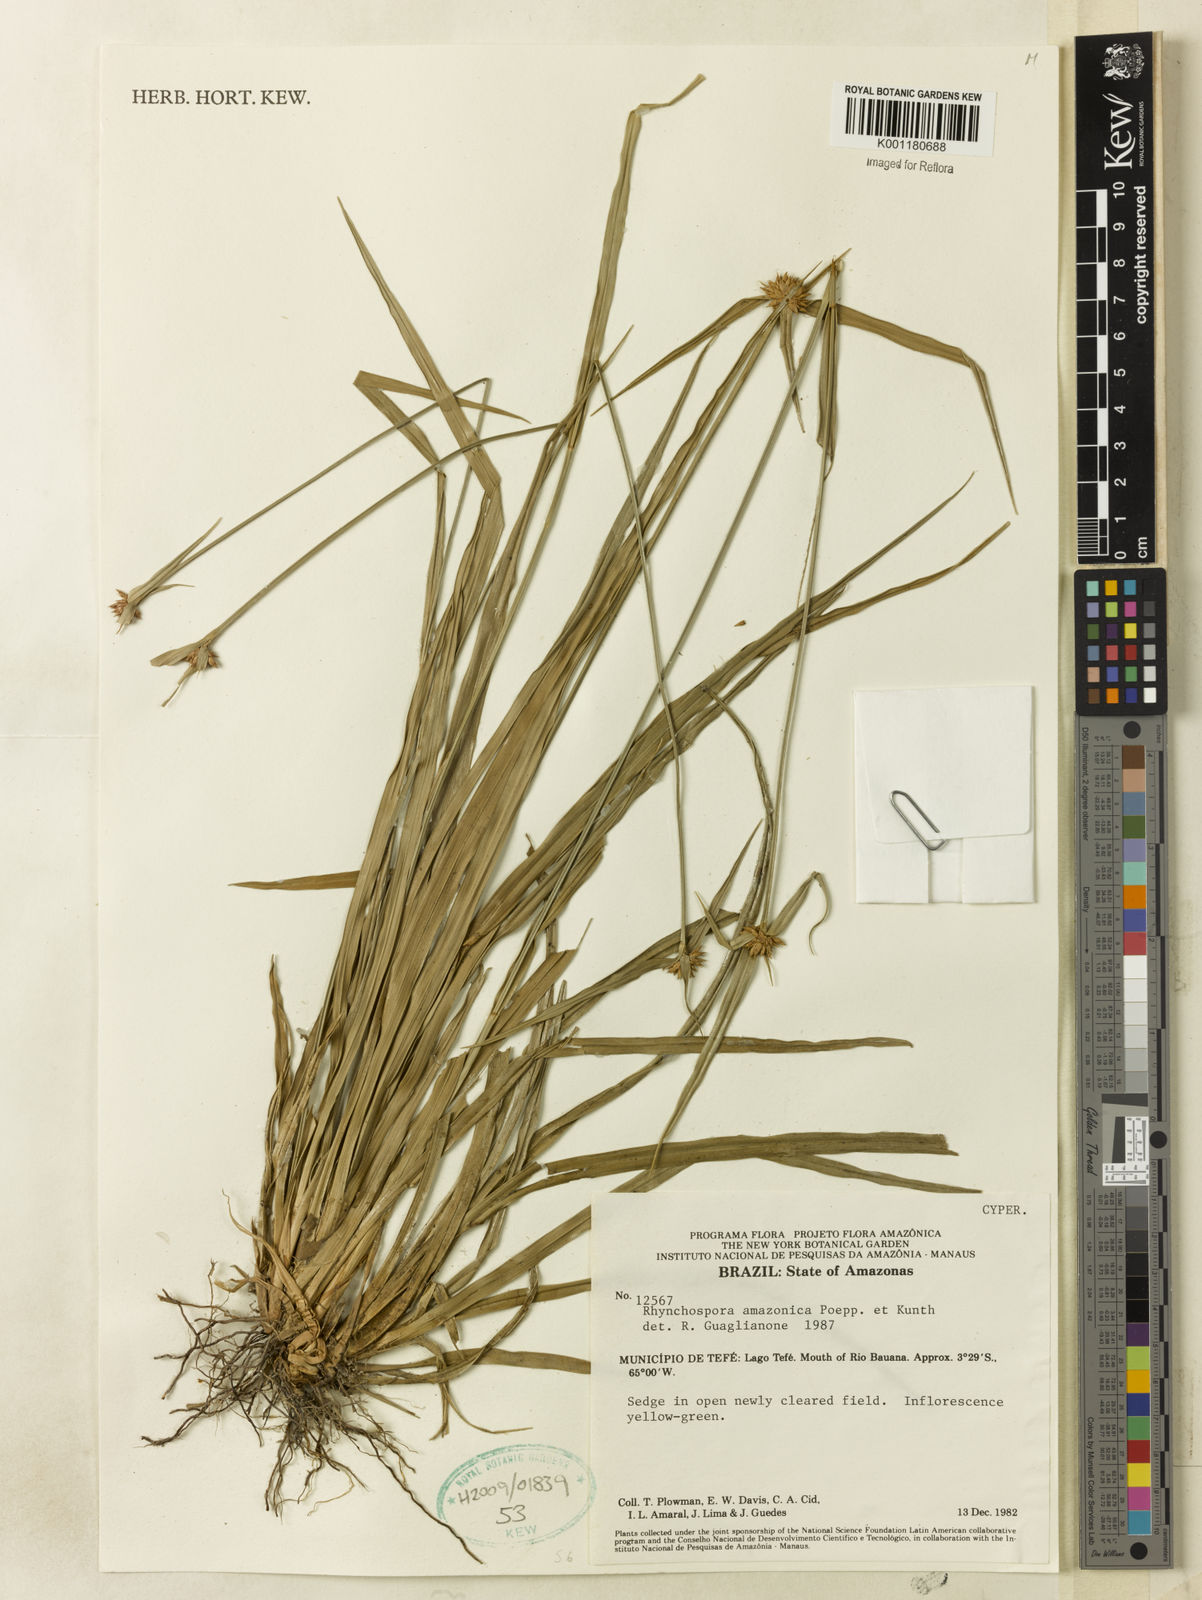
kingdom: Plantae
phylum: Tracheophyta
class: Liliopsida
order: Poales
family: Cyperaceae
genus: Rhynchospora
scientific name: Rhynchospora amazonica
